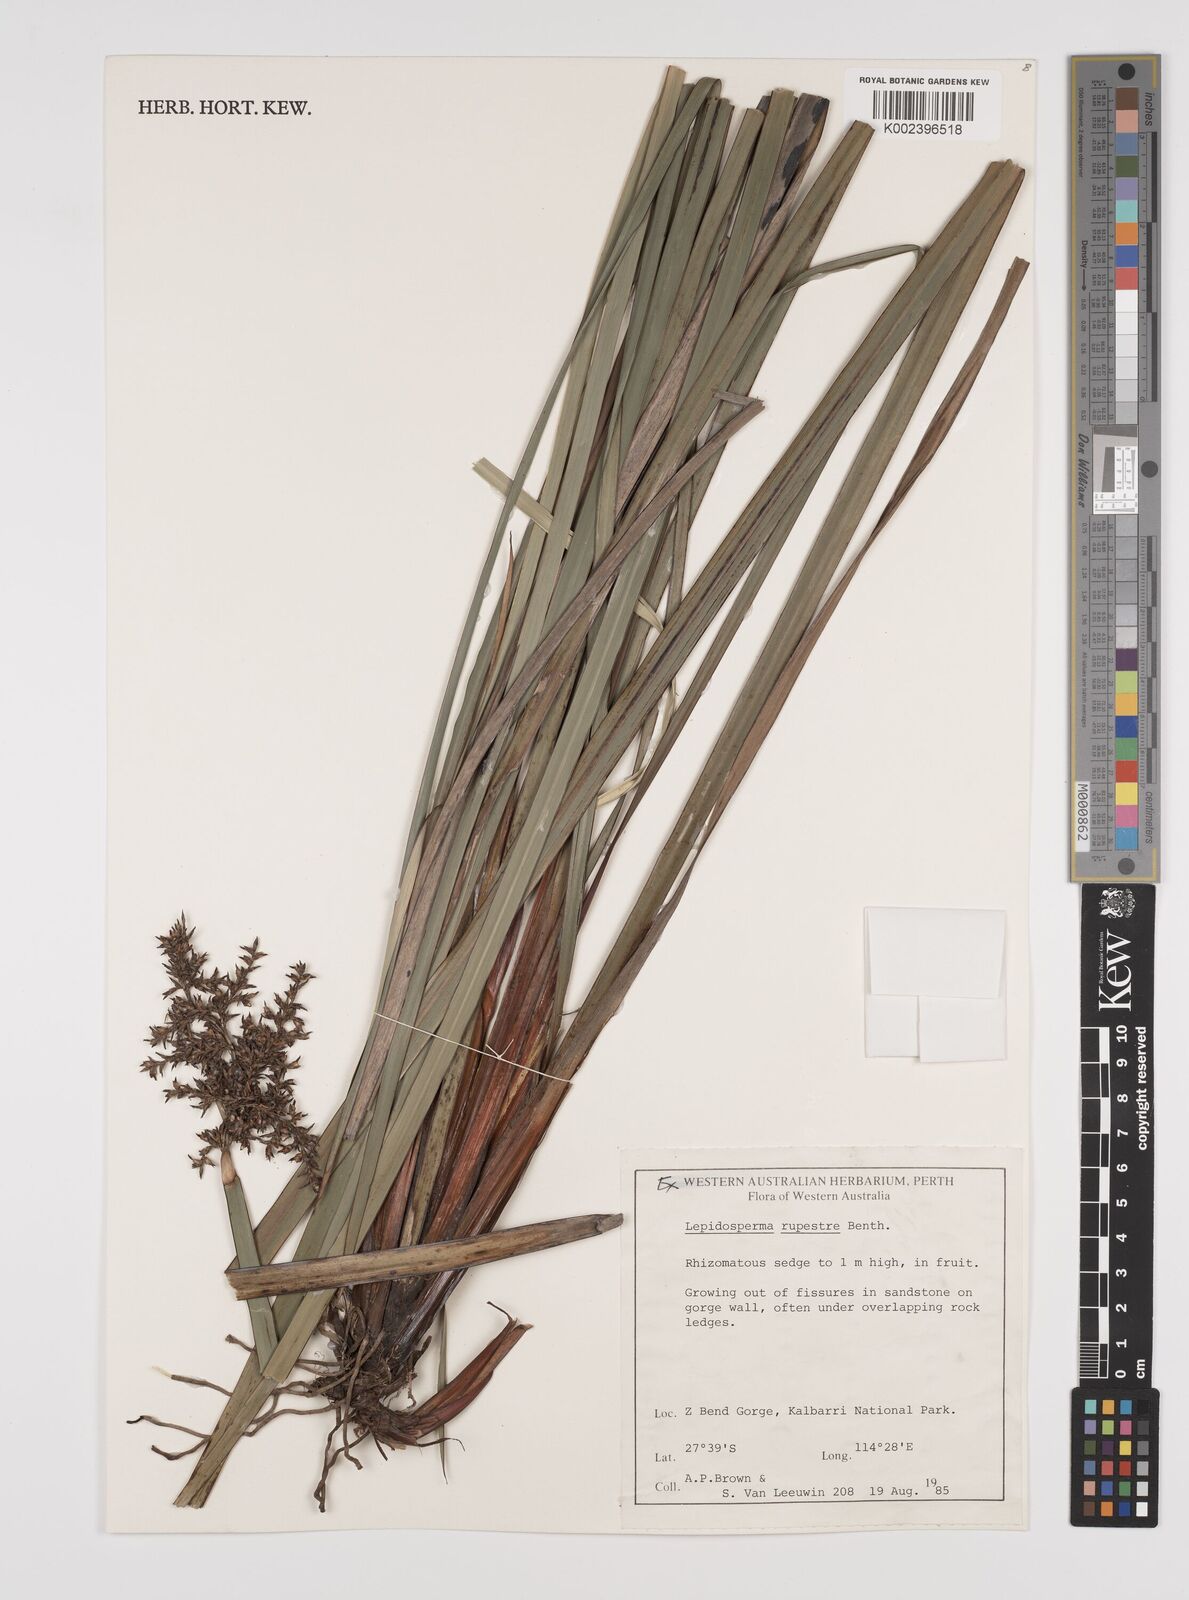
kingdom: Plantae
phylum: Tracheophyta
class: Liliopsida
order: Poales
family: Cyperaceae
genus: Lepidosperma
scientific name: Lepidosperma rupestre
